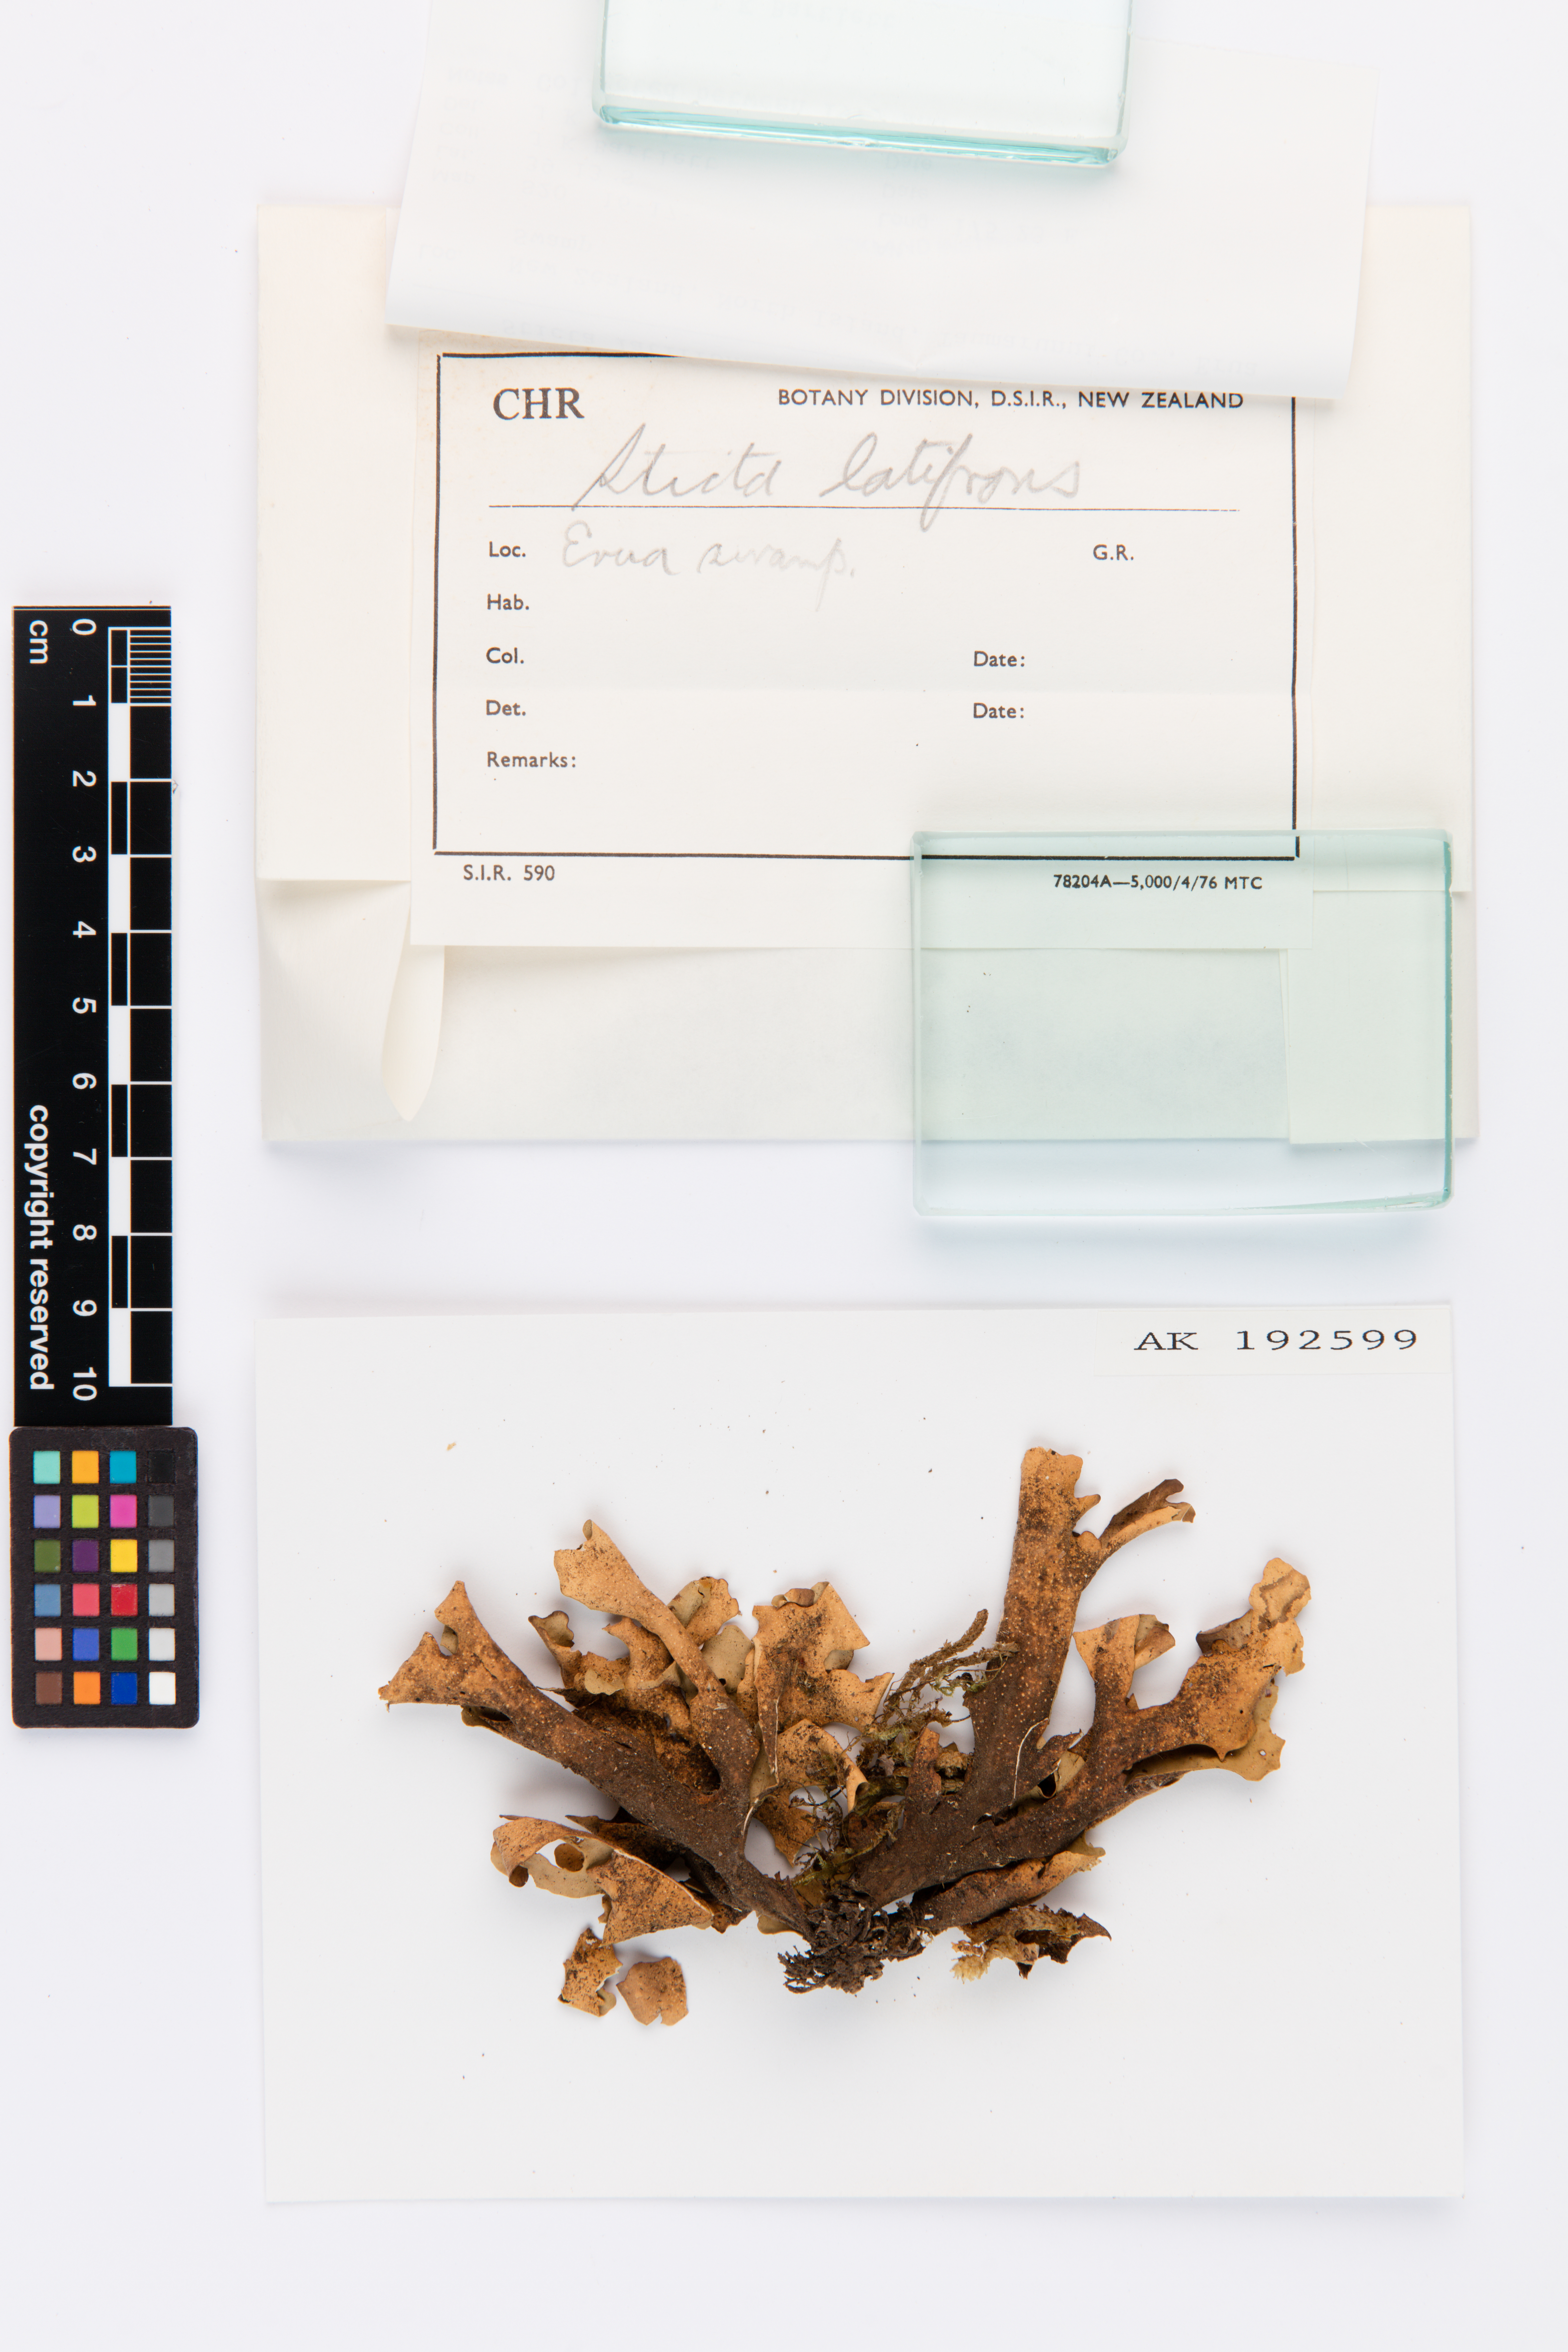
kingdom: Fungi
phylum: Ascomycota
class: Lecanoromycetes
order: Peltigerales
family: Lobariaceae
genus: Sticta
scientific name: Sticta latifrons
